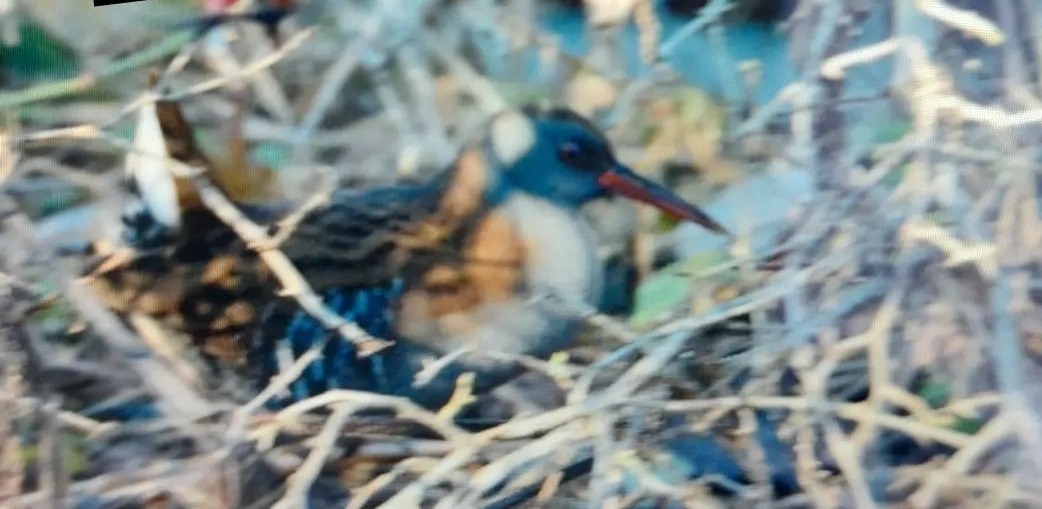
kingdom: Animalia
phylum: Chordata
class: Aves
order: Gruiformes
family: Rallidae
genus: Rallus
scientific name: Rallus aquaticus
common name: Vandrikse
